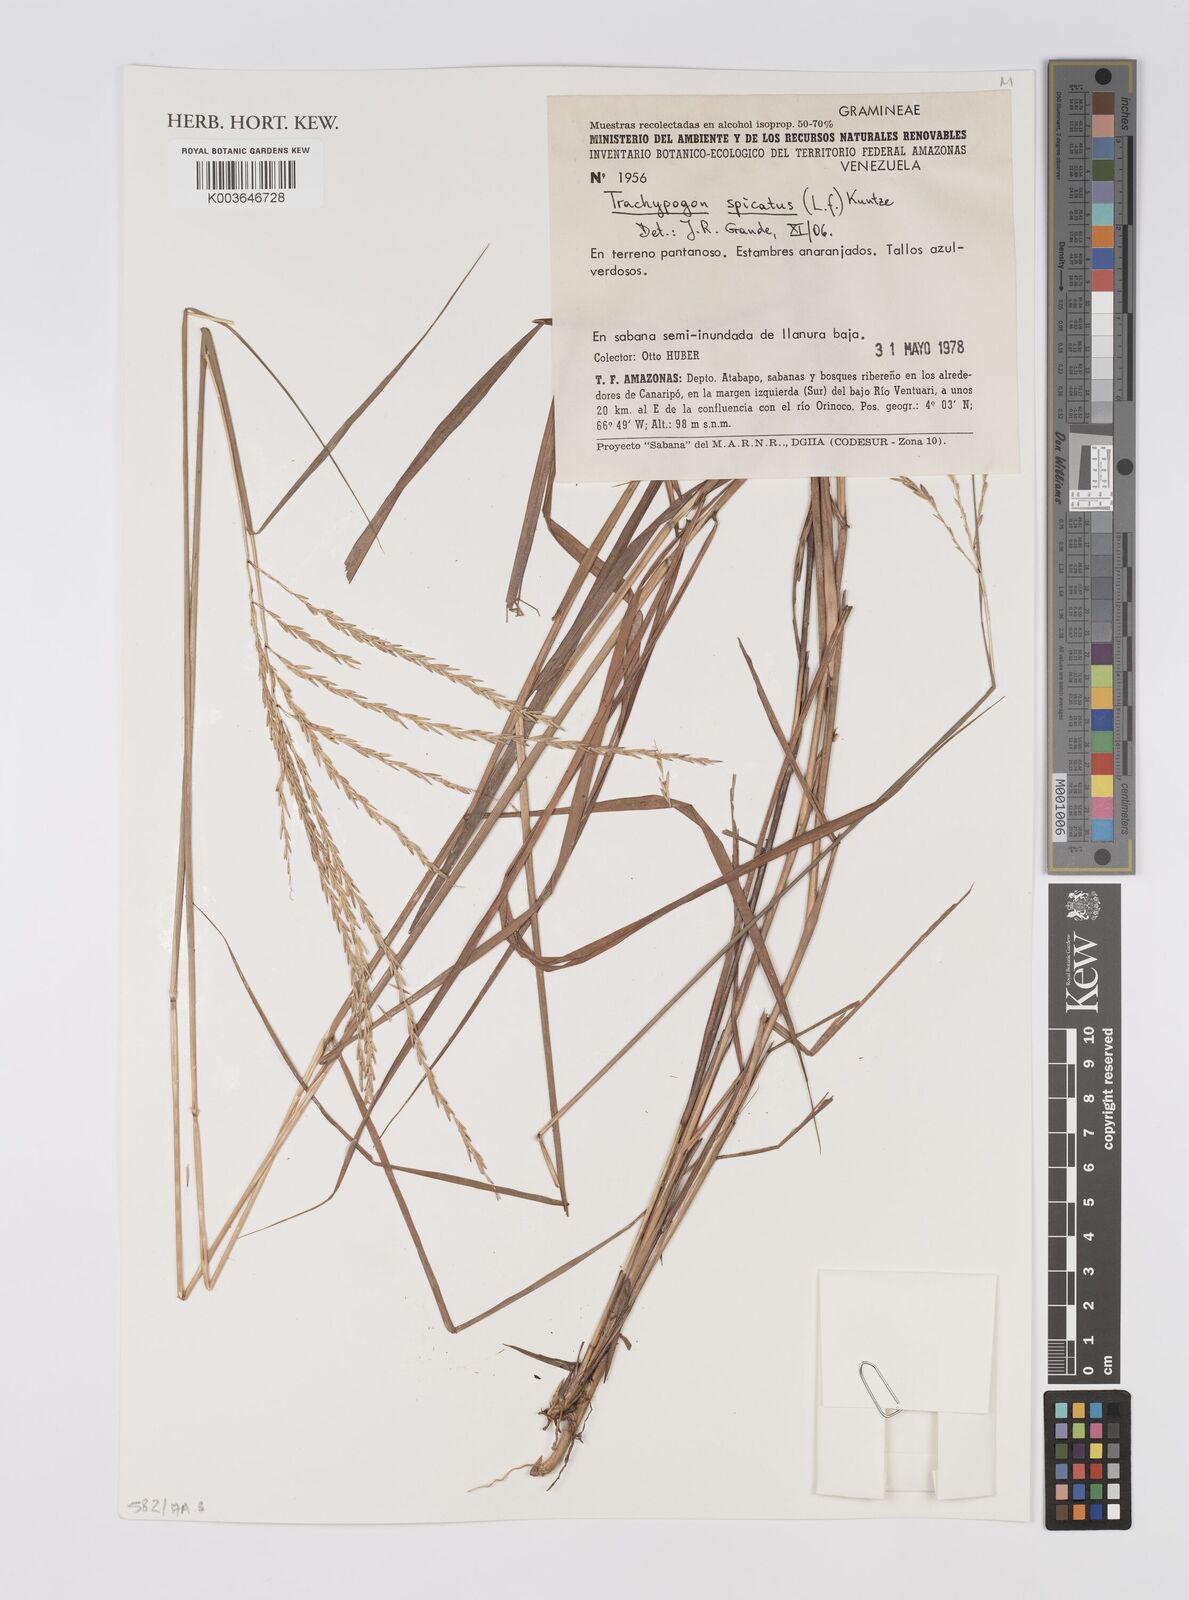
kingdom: Plantae
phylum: Tracheophyta
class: Liliopsida
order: Poales
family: Poaceae
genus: Trachypogon
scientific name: Trachypogon spicatus
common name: Crinkle-awn
